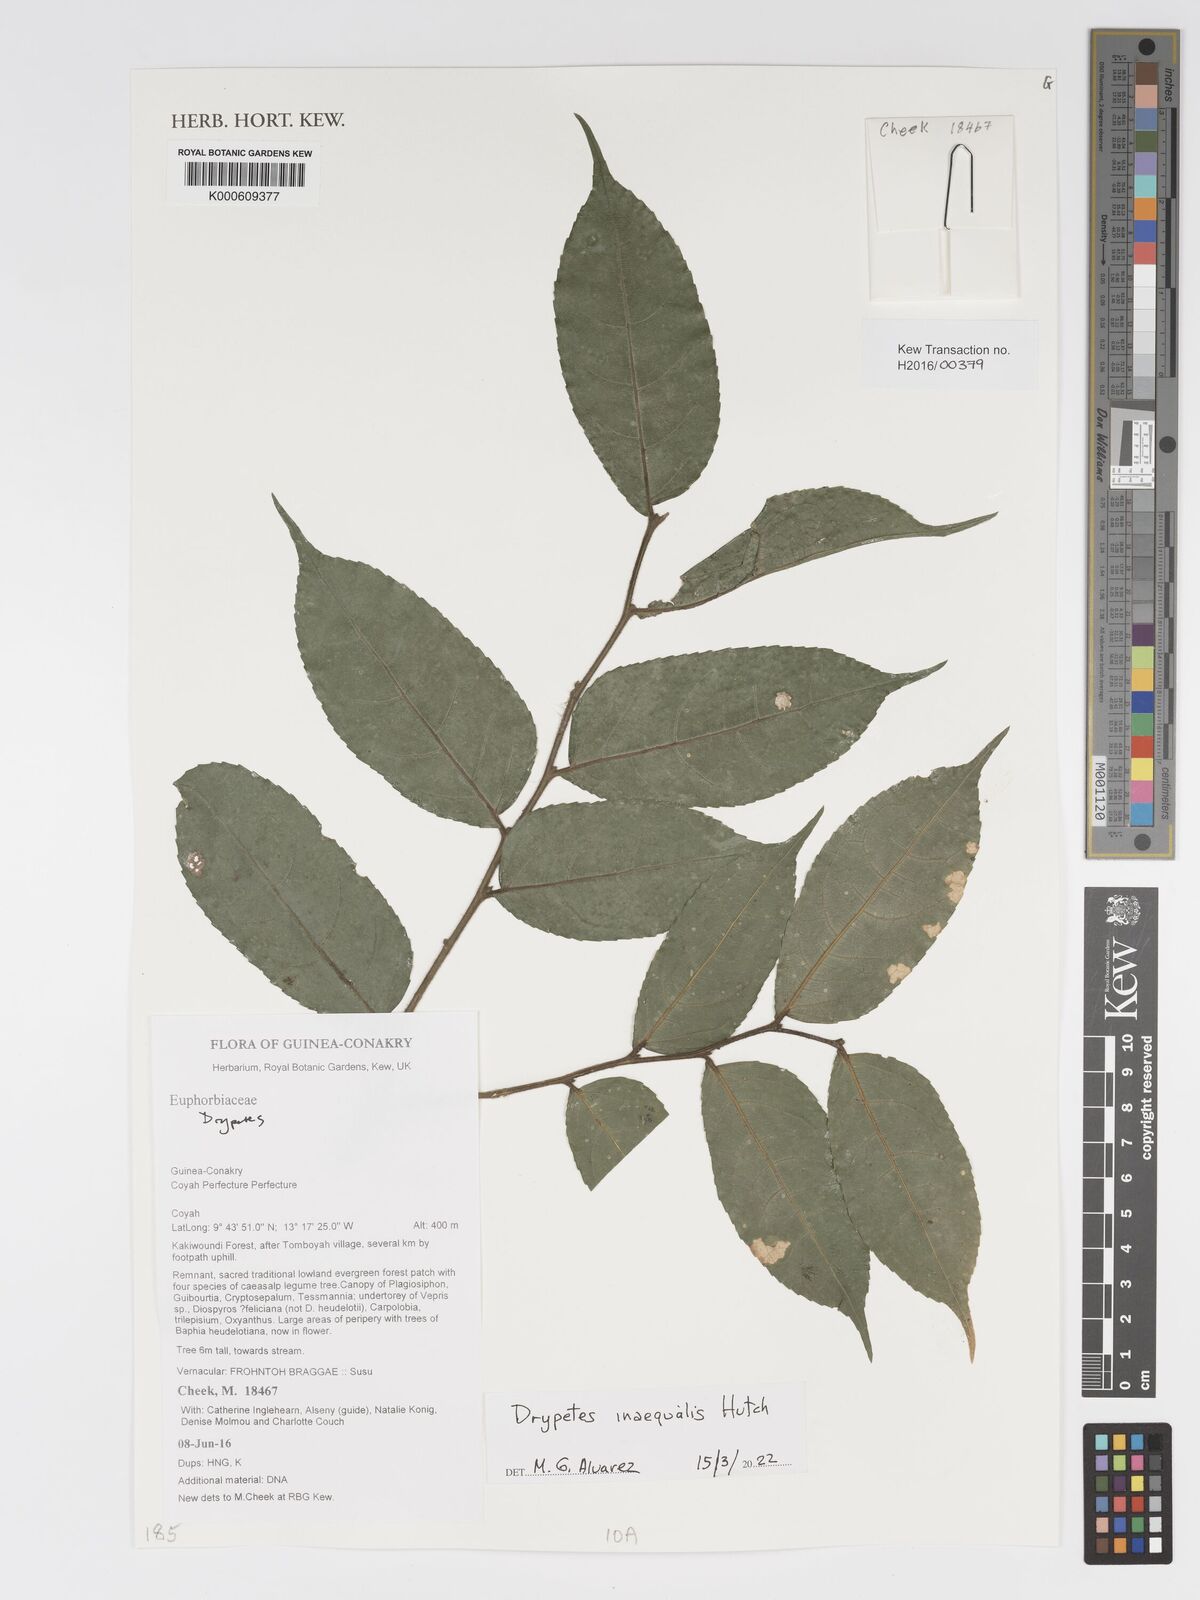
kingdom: Plantae
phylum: Tracheophyta
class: Magnoliopsida
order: Malpighiales
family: Putranjivaceae
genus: Drypetes
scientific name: Drypetes inaequalis
